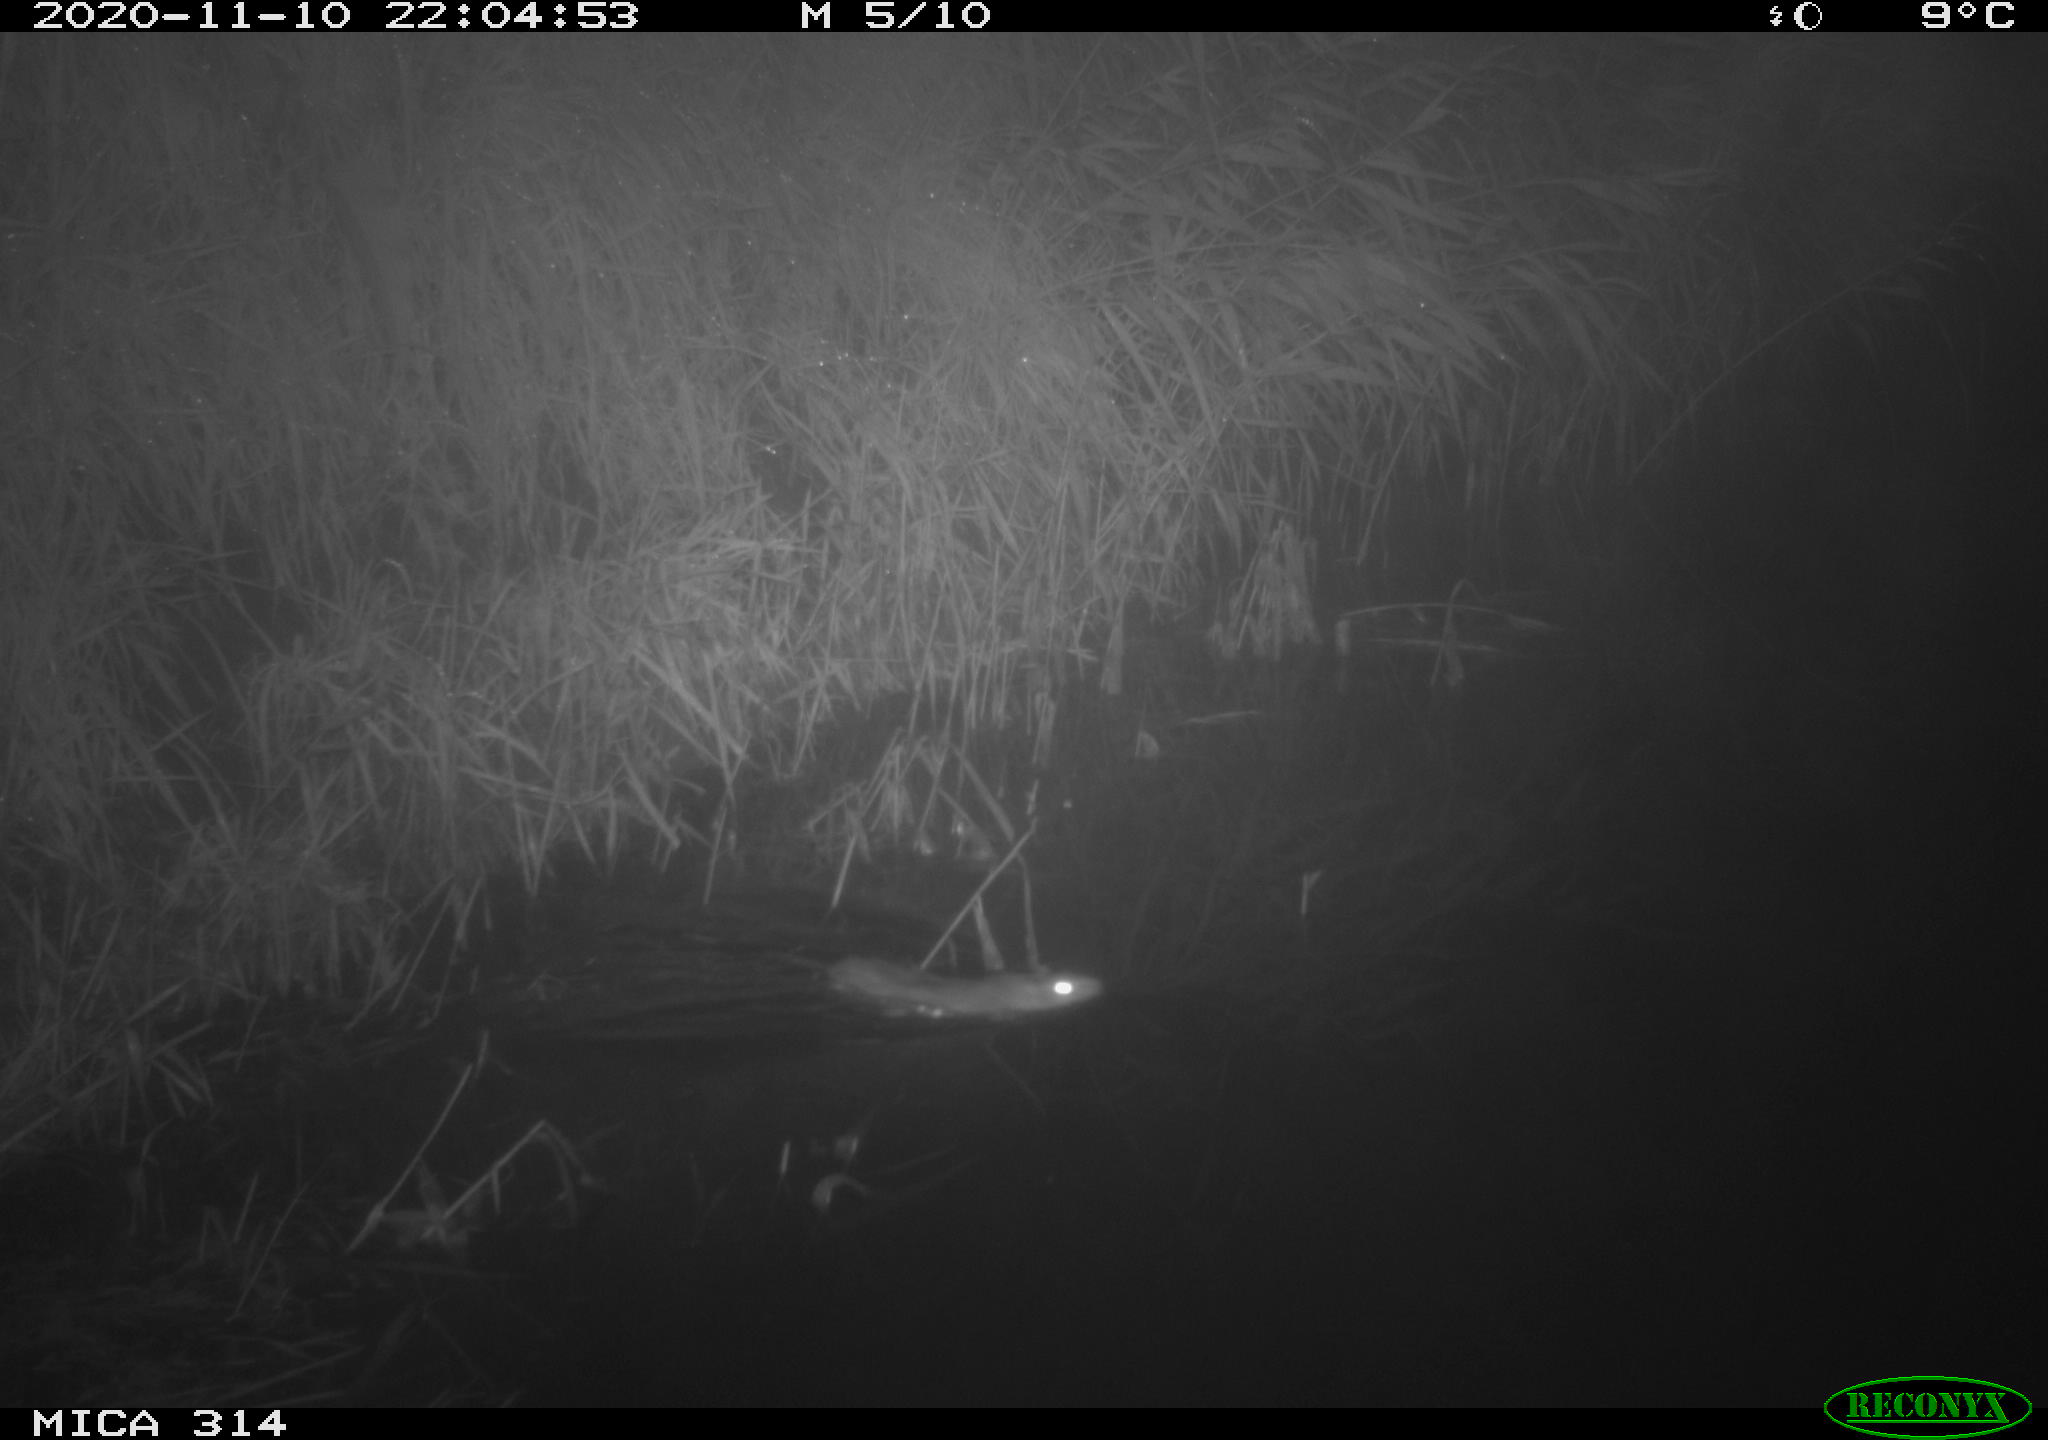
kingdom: Animalia
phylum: Chordata
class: Mammalia
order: Rodentia
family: Muridae
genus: Rattus
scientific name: Rattus norvegicus
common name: Brown rat
